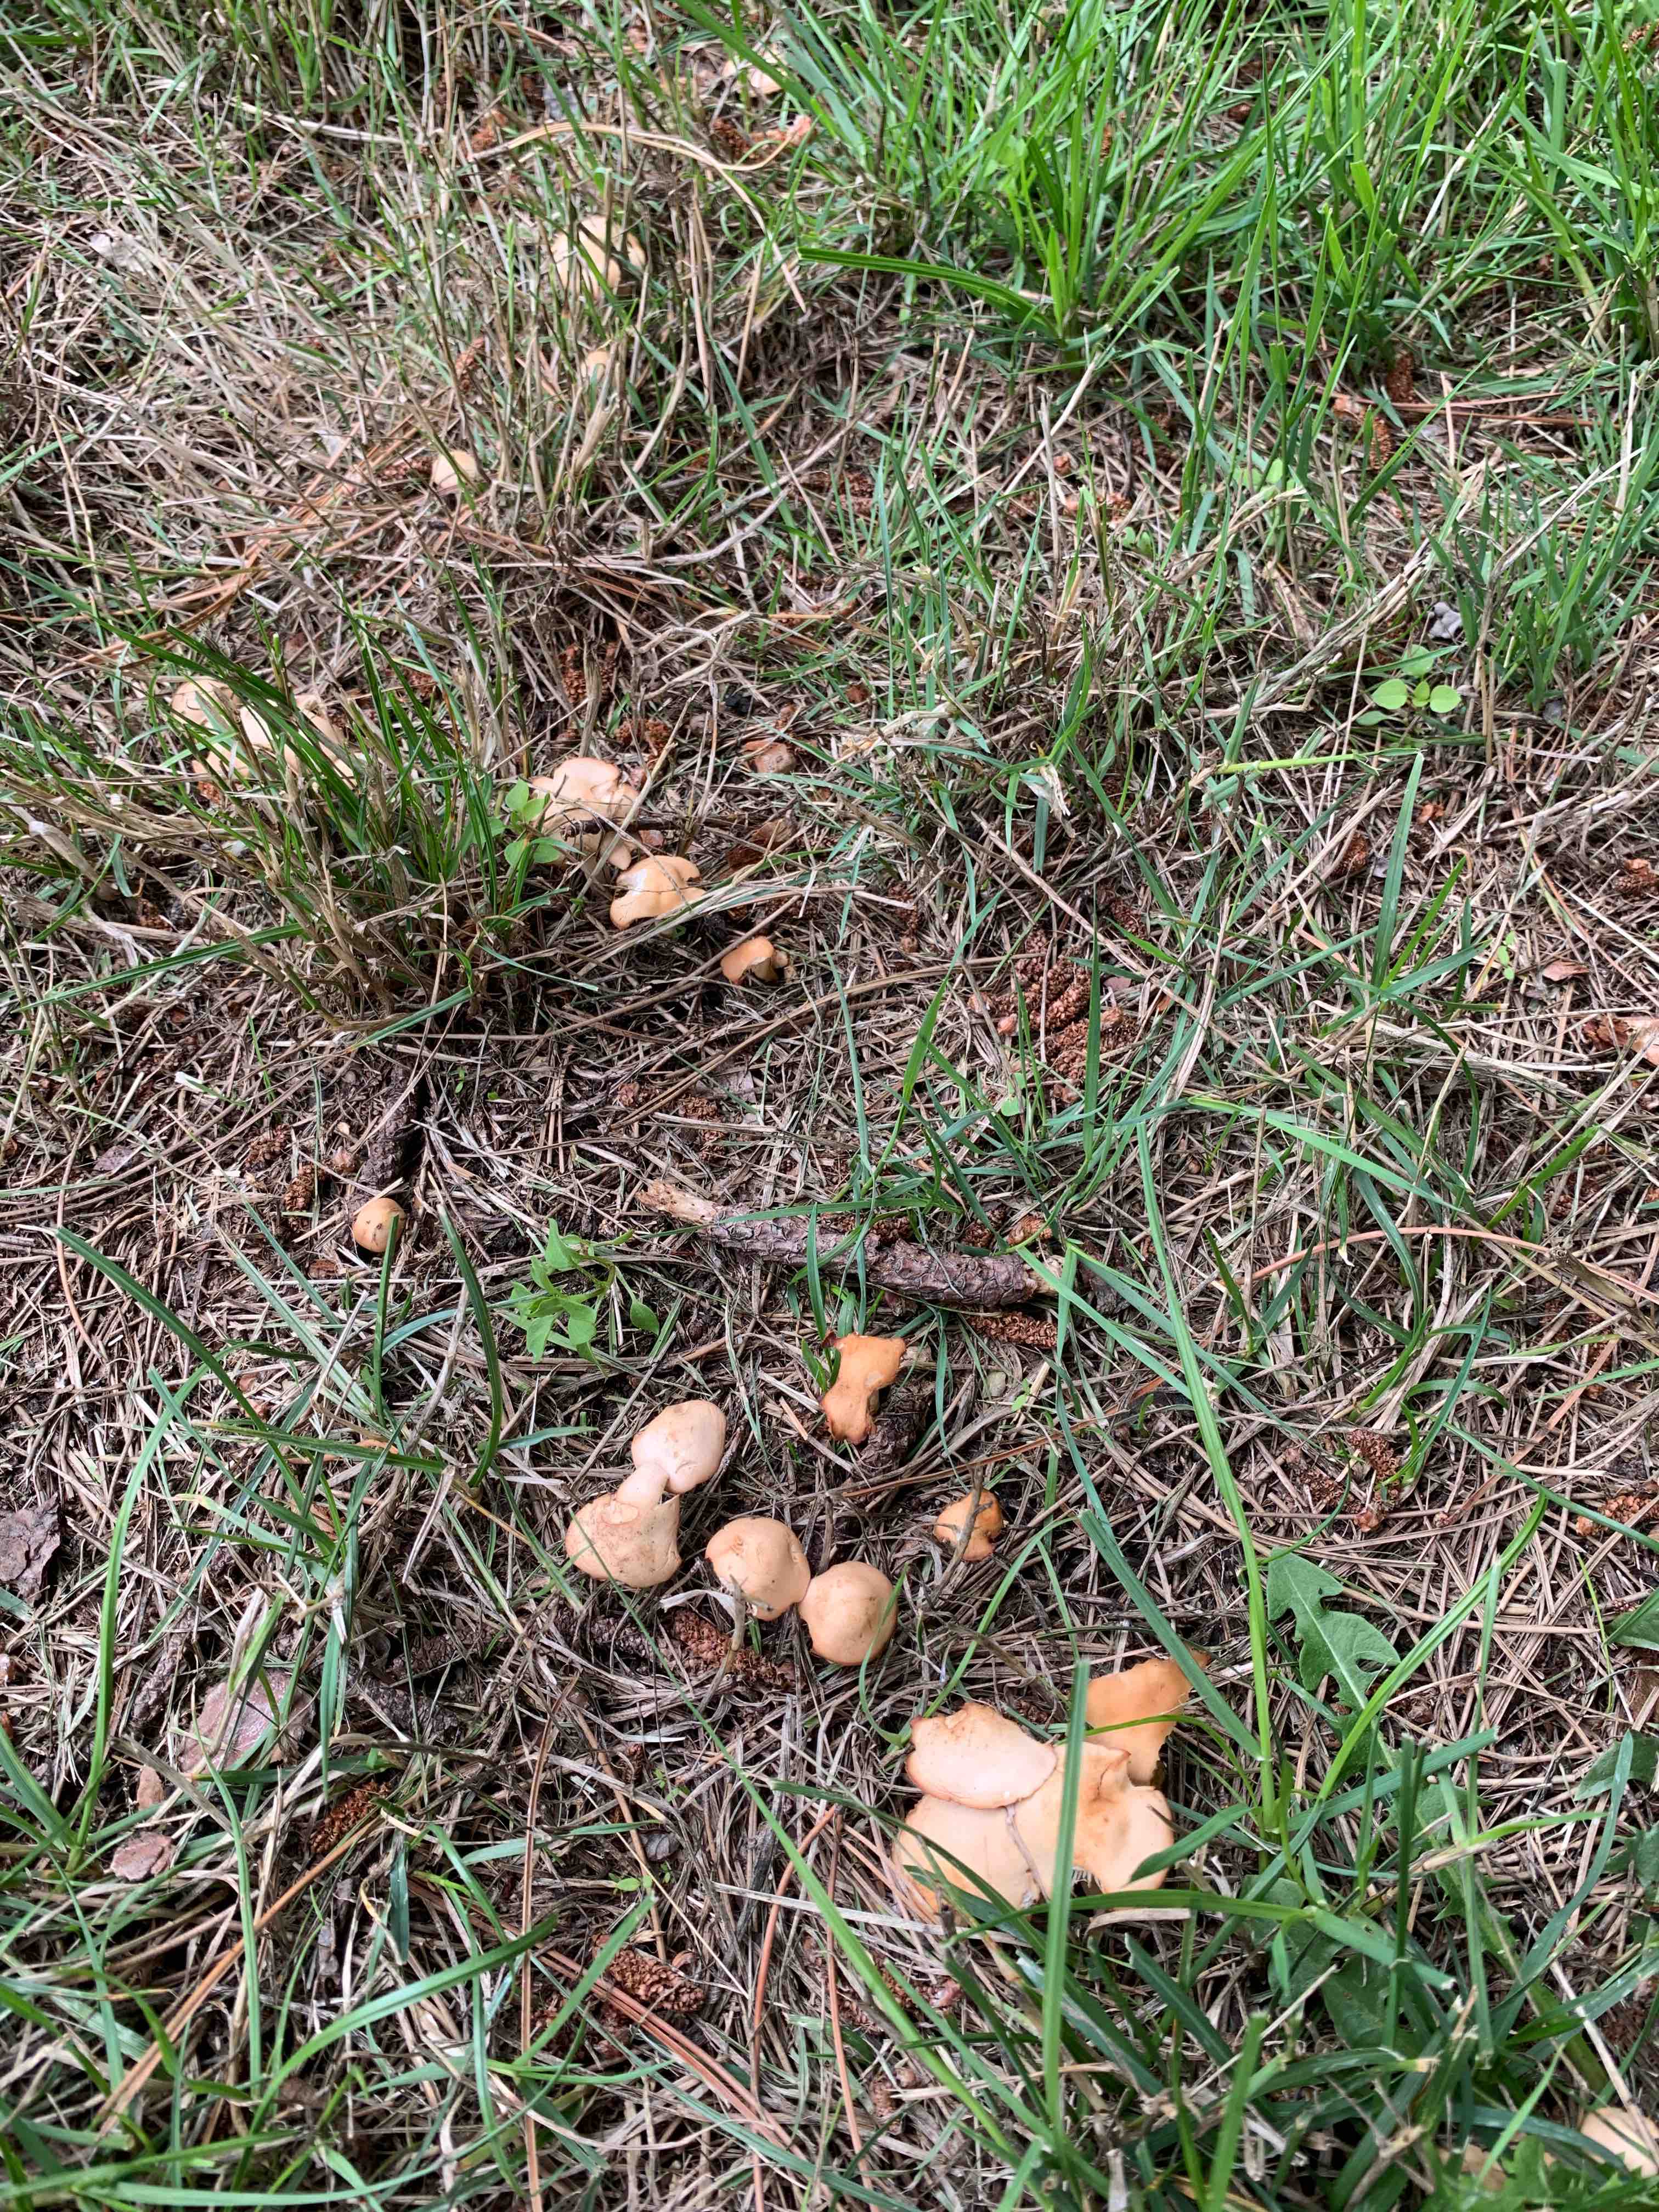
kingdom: Fungi
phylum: Basidiomycota
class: Agaricomycetes
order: Agaricales
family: Marasmiaceae
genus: Marasmius
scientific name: Marasmius oreades
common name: elledans-bruskhat
